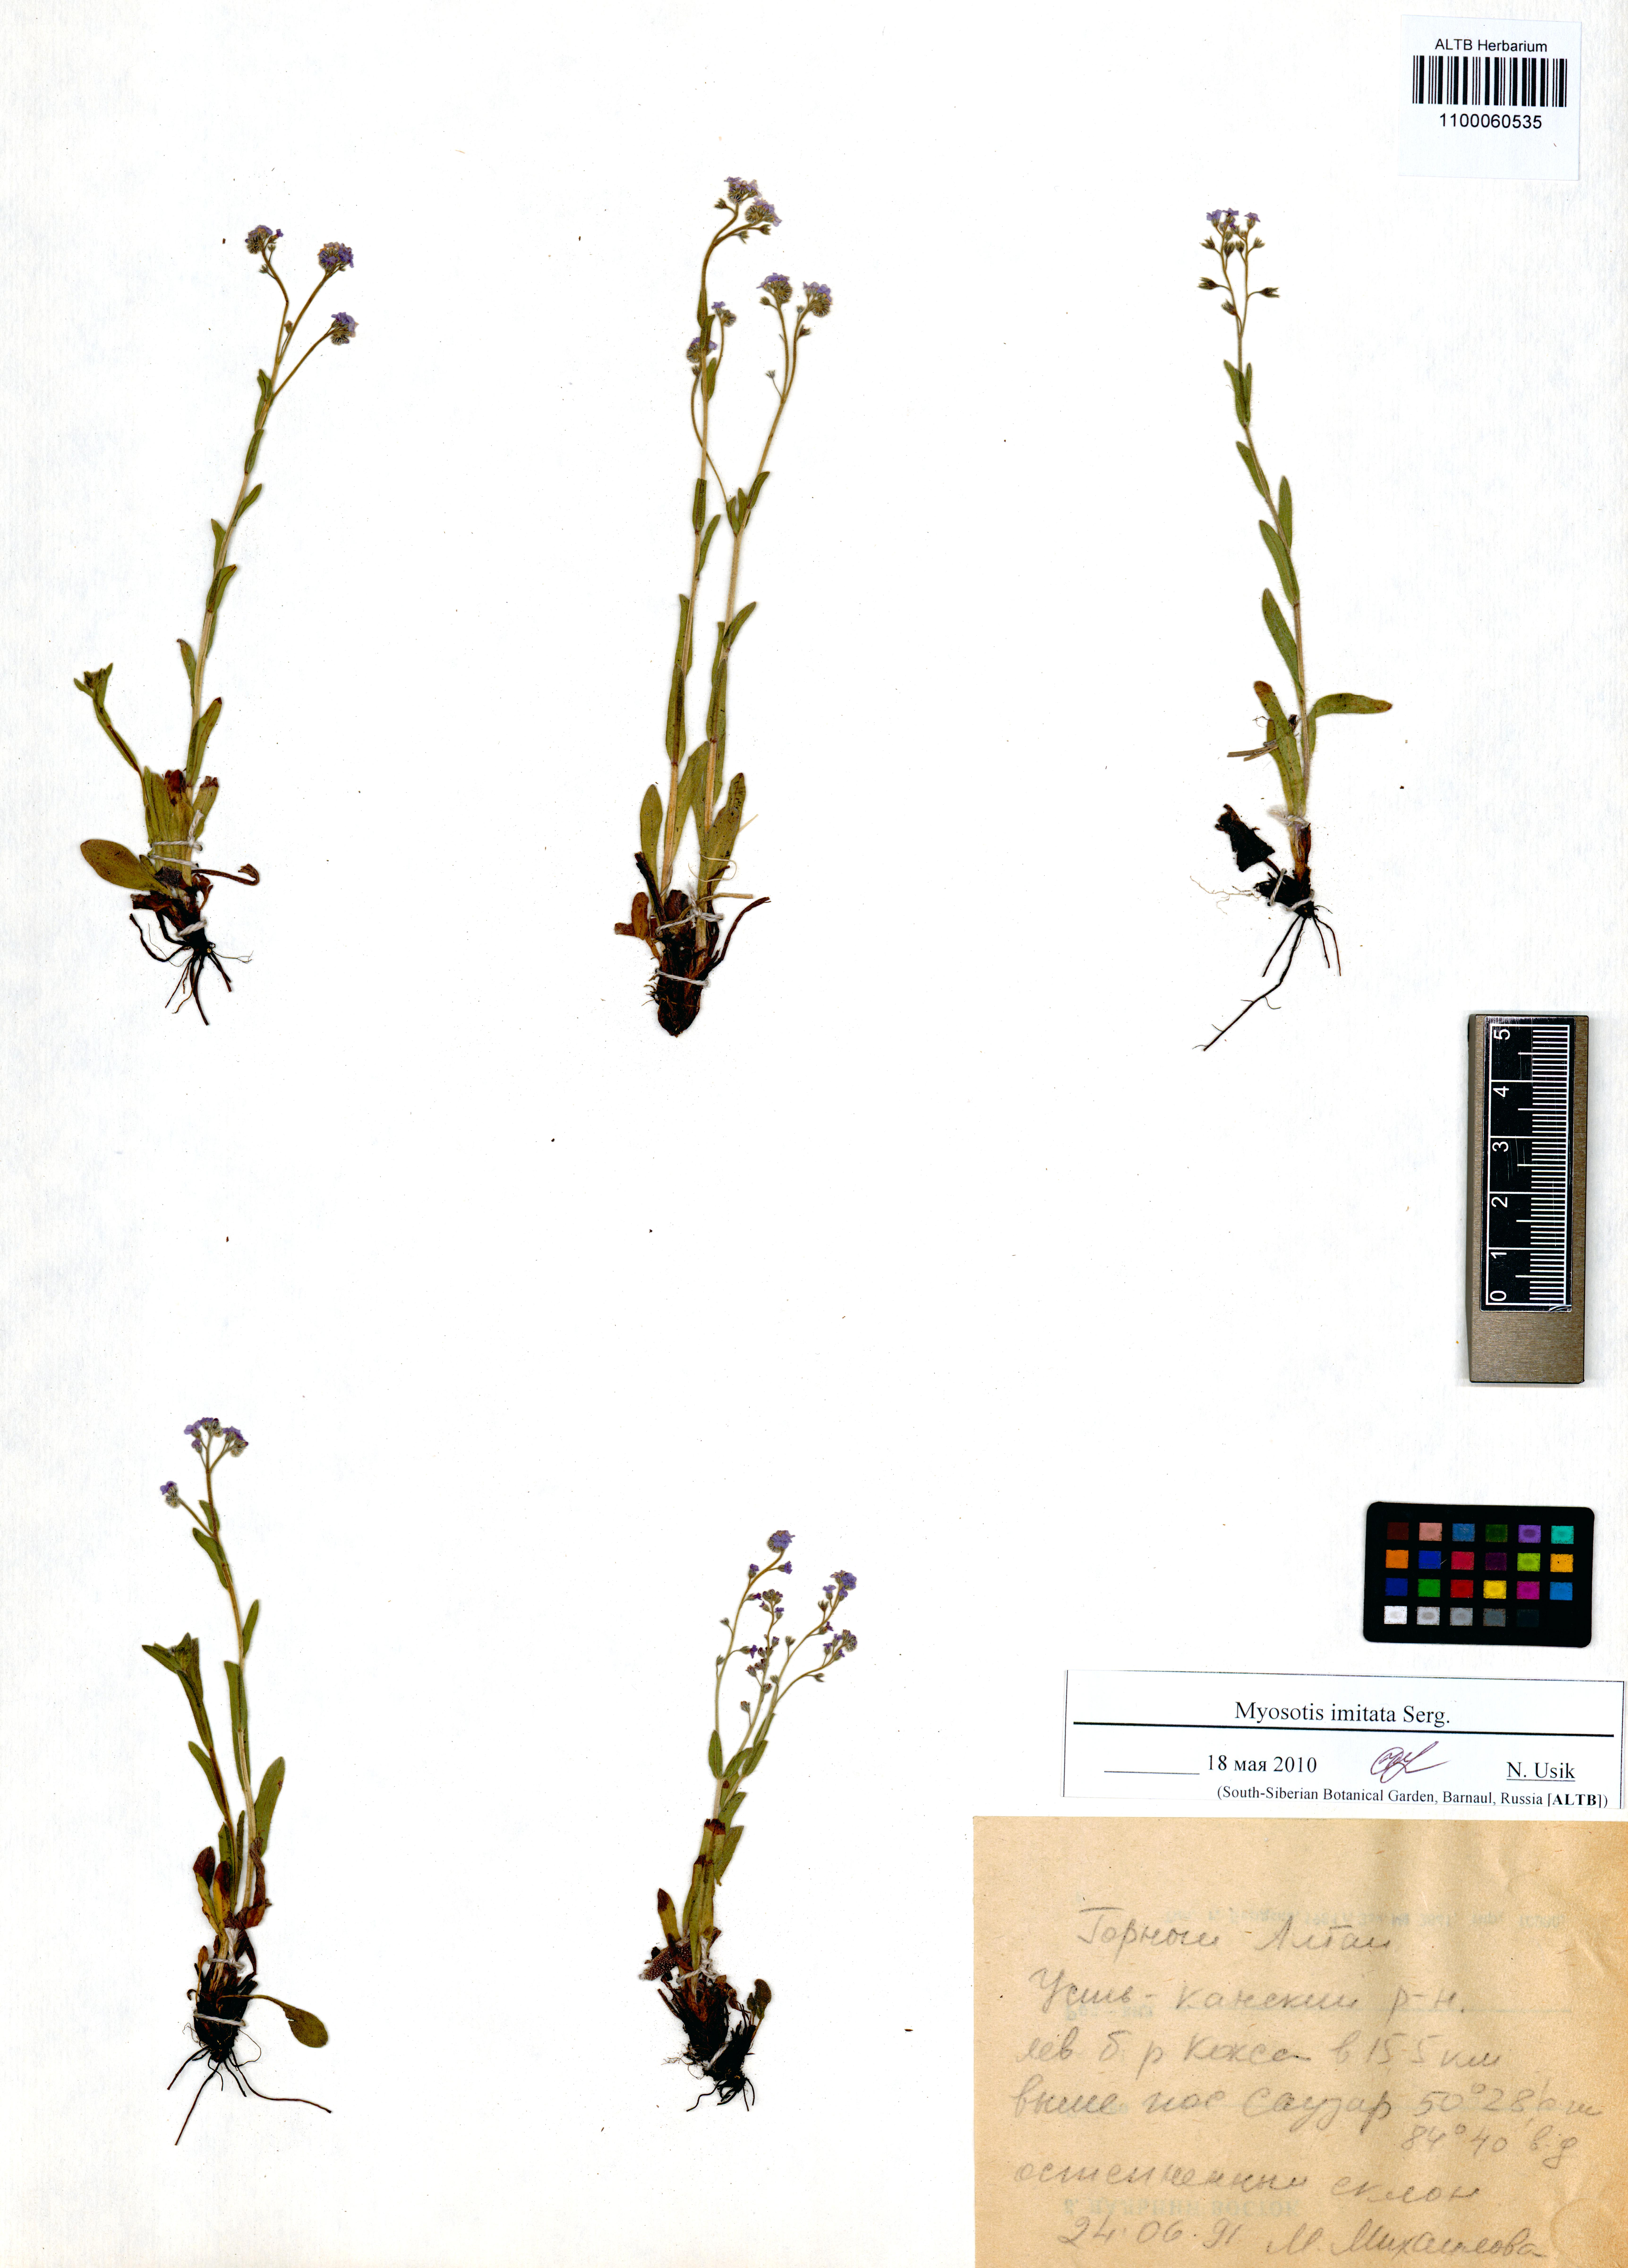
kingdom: Plantae
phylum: Tracheophyta
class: Magnoliopsida
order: Boraginales
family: Boraginaceae
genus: Myosotis
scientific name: Myosotis imitata
